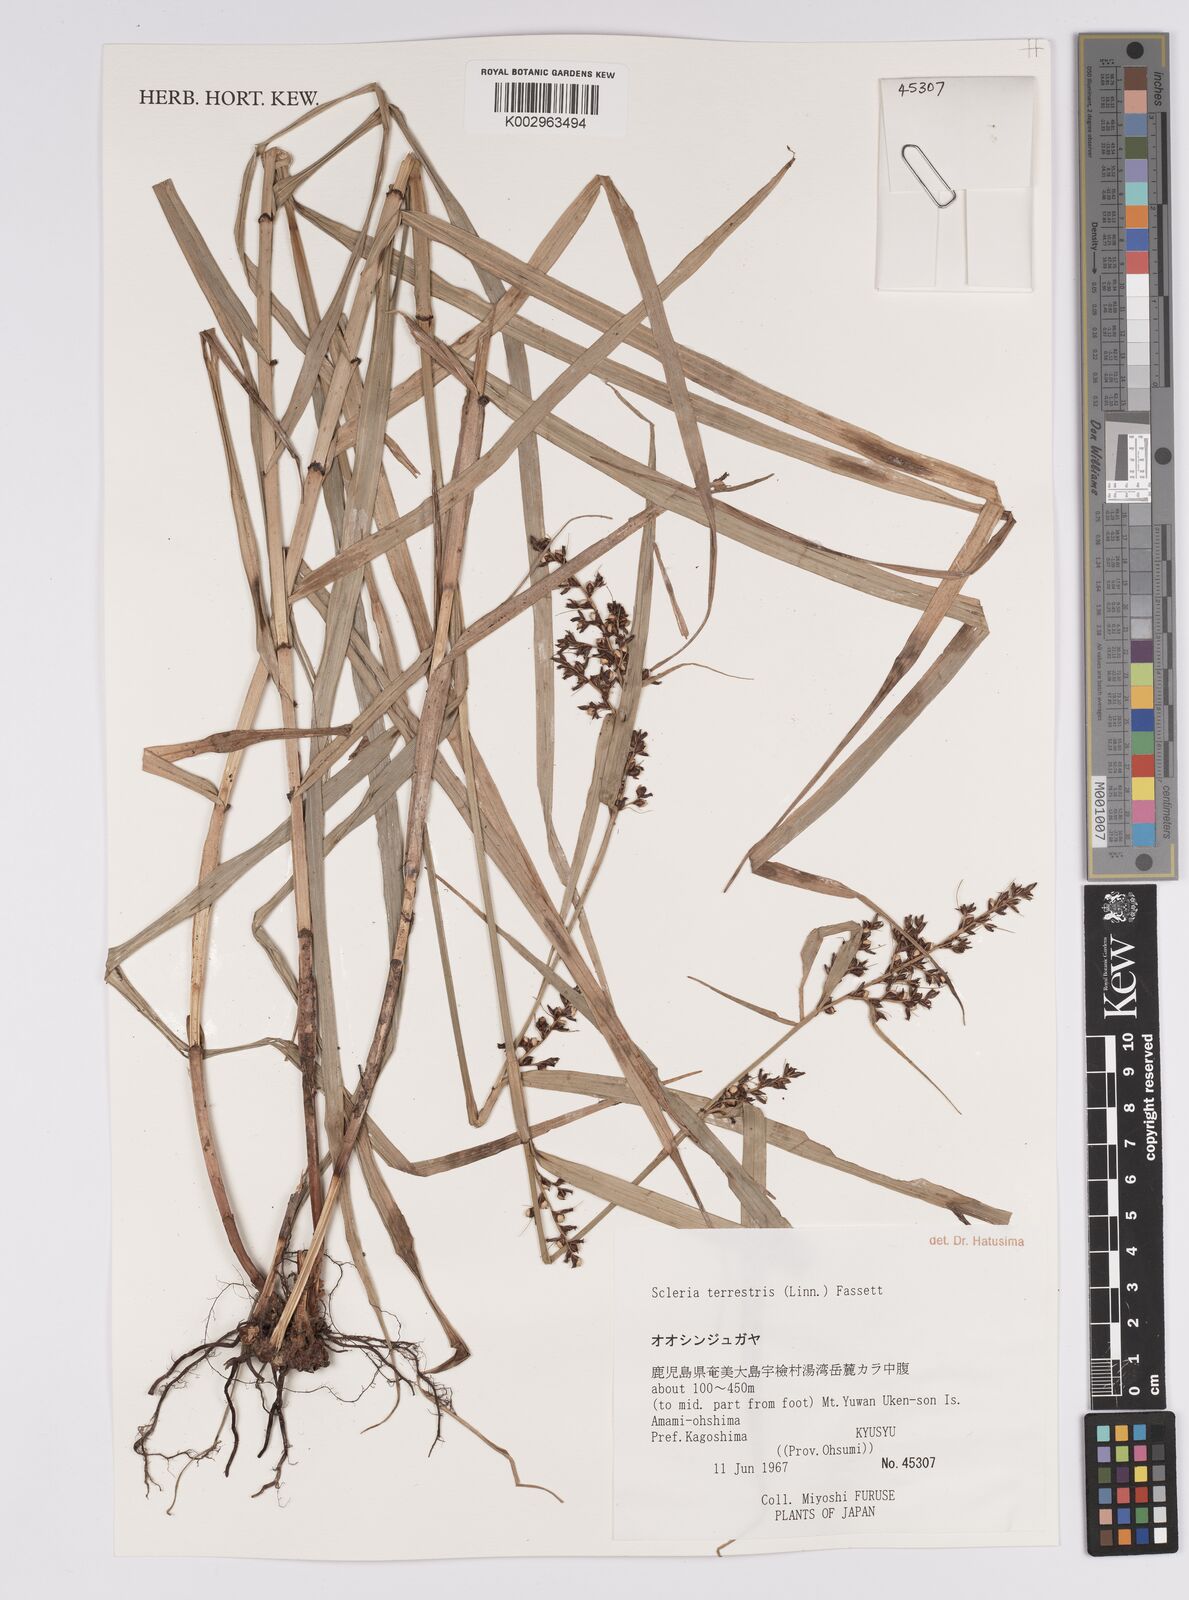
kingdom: Plantae
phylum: Tracheophyta
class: Liliopsida
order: Poales
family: Cyperaceae
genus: Scleria
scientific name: Scleria terrestris
